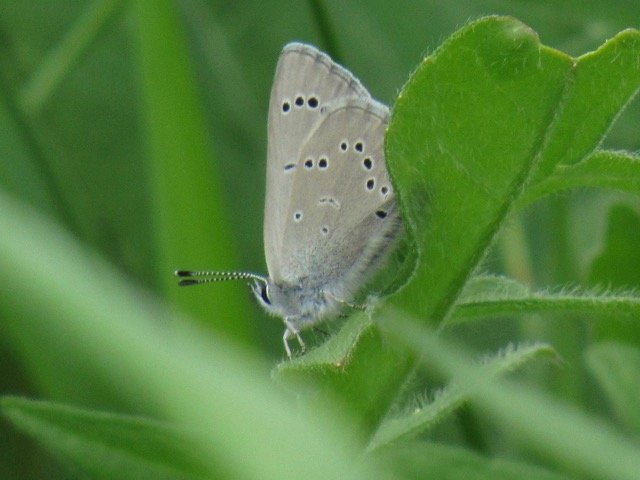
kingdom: Animalia
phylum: Arthropoda
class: Insecta
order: Lepidoptera
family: Lycaenidae
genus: Glaucopsyche
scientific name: Glaucopsyche lygdamus
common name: Silvery Blue
